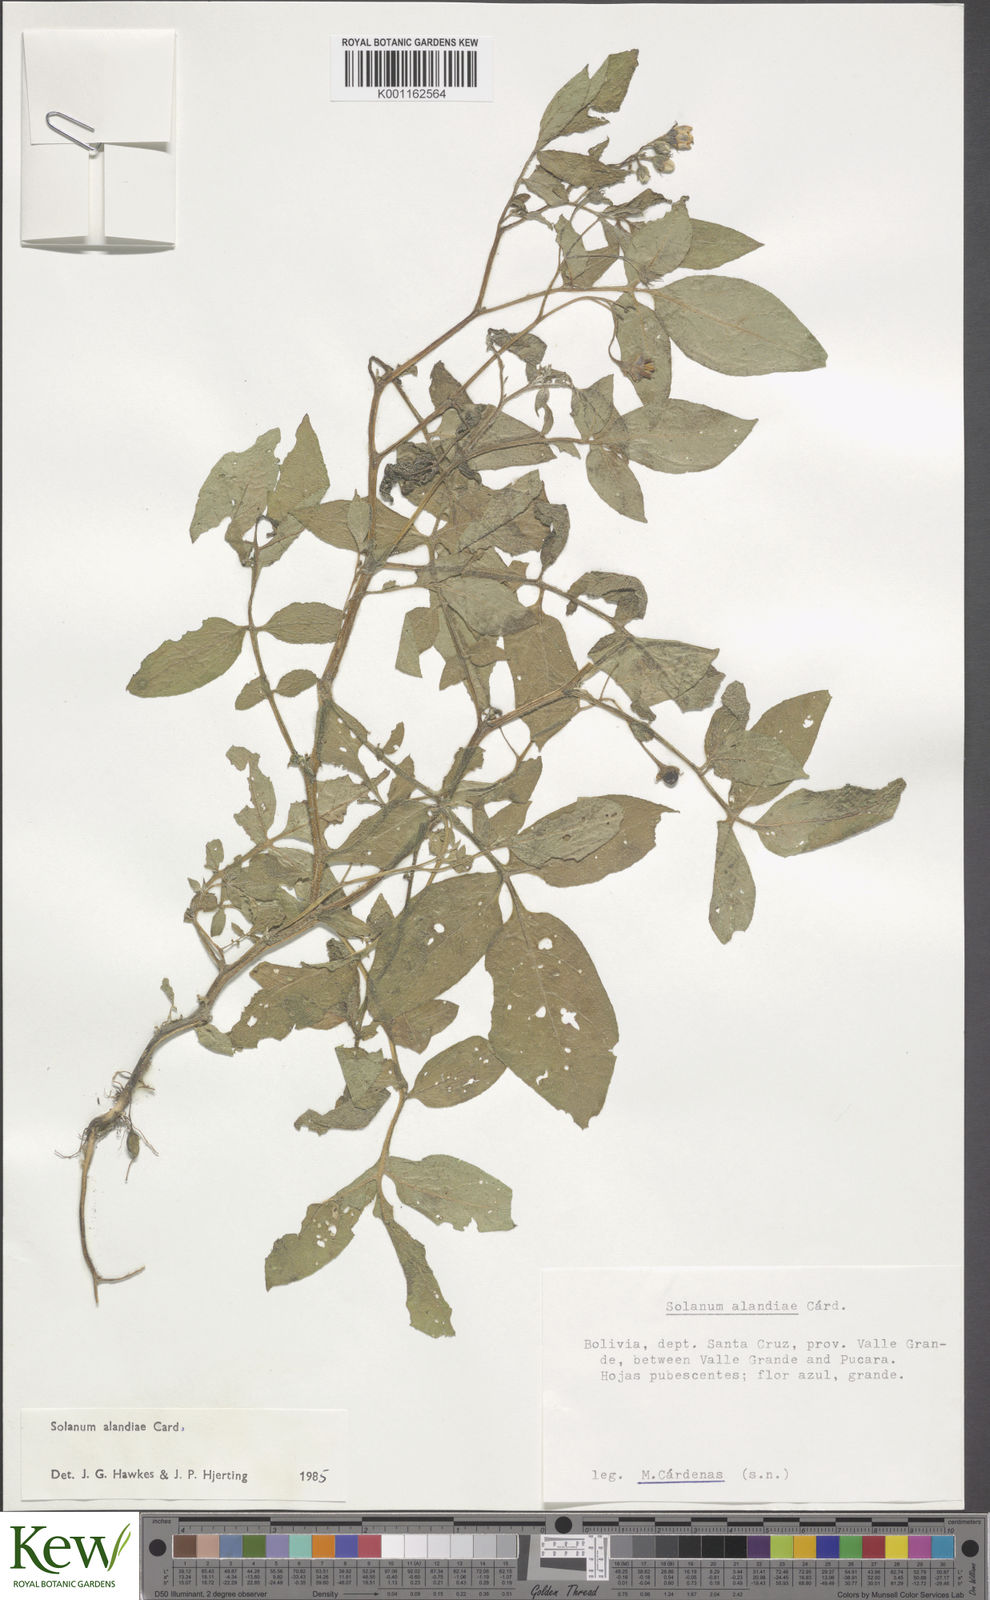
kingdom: Plantae
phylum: Tracheophyta
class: Magnoliopsida
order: Solanales
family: Solanaceae
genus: Solanum
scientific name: Solanum
